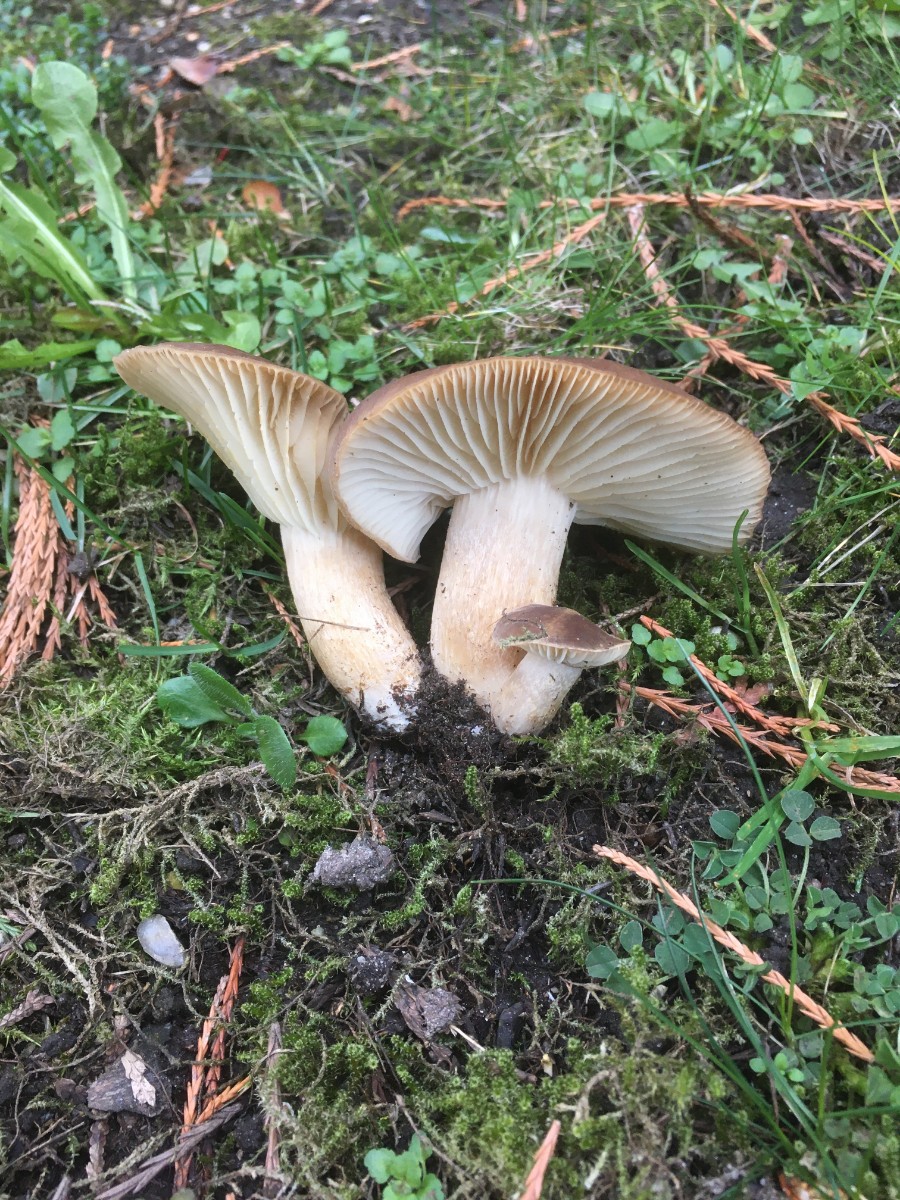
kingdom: Fungi
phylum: Basidiomycota
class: Agaricomycetes
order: Agaricales
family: Lyophyllaceae
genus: Lyophyllum
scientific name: Lyophyllum decastes
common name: røggrå gråblad
